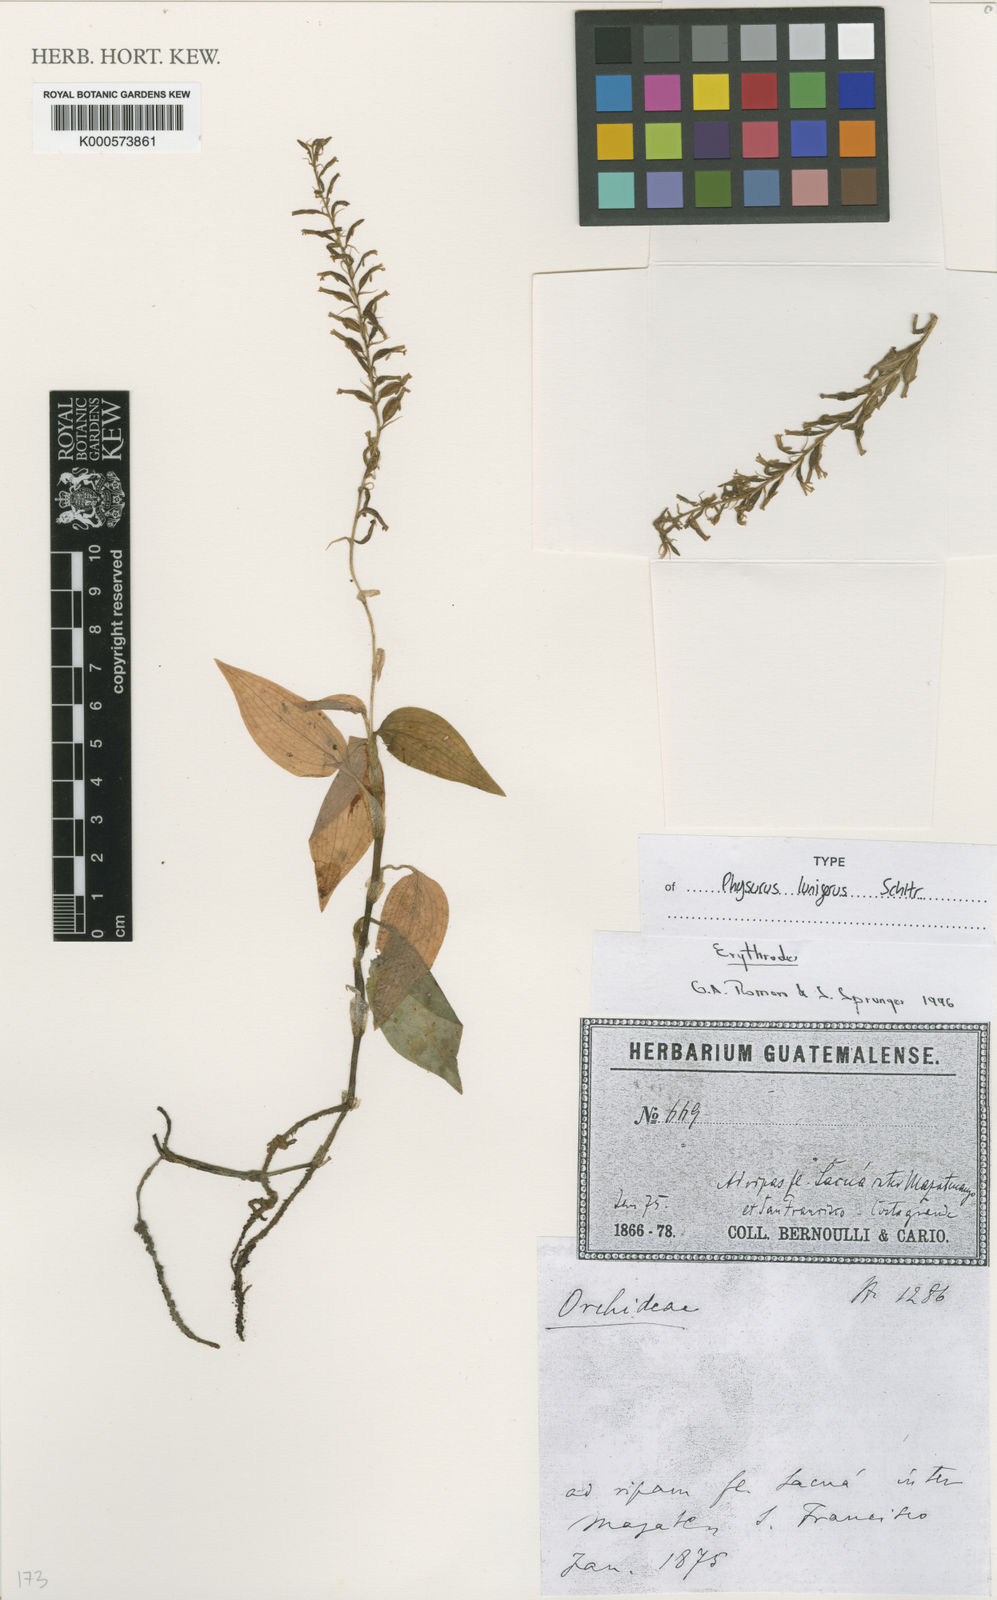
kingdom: Plantae
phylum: Tracheophyta
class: Liliopsida
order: Asparagales
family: Orchidaceae
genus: Microchilus
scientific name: Microchilus
